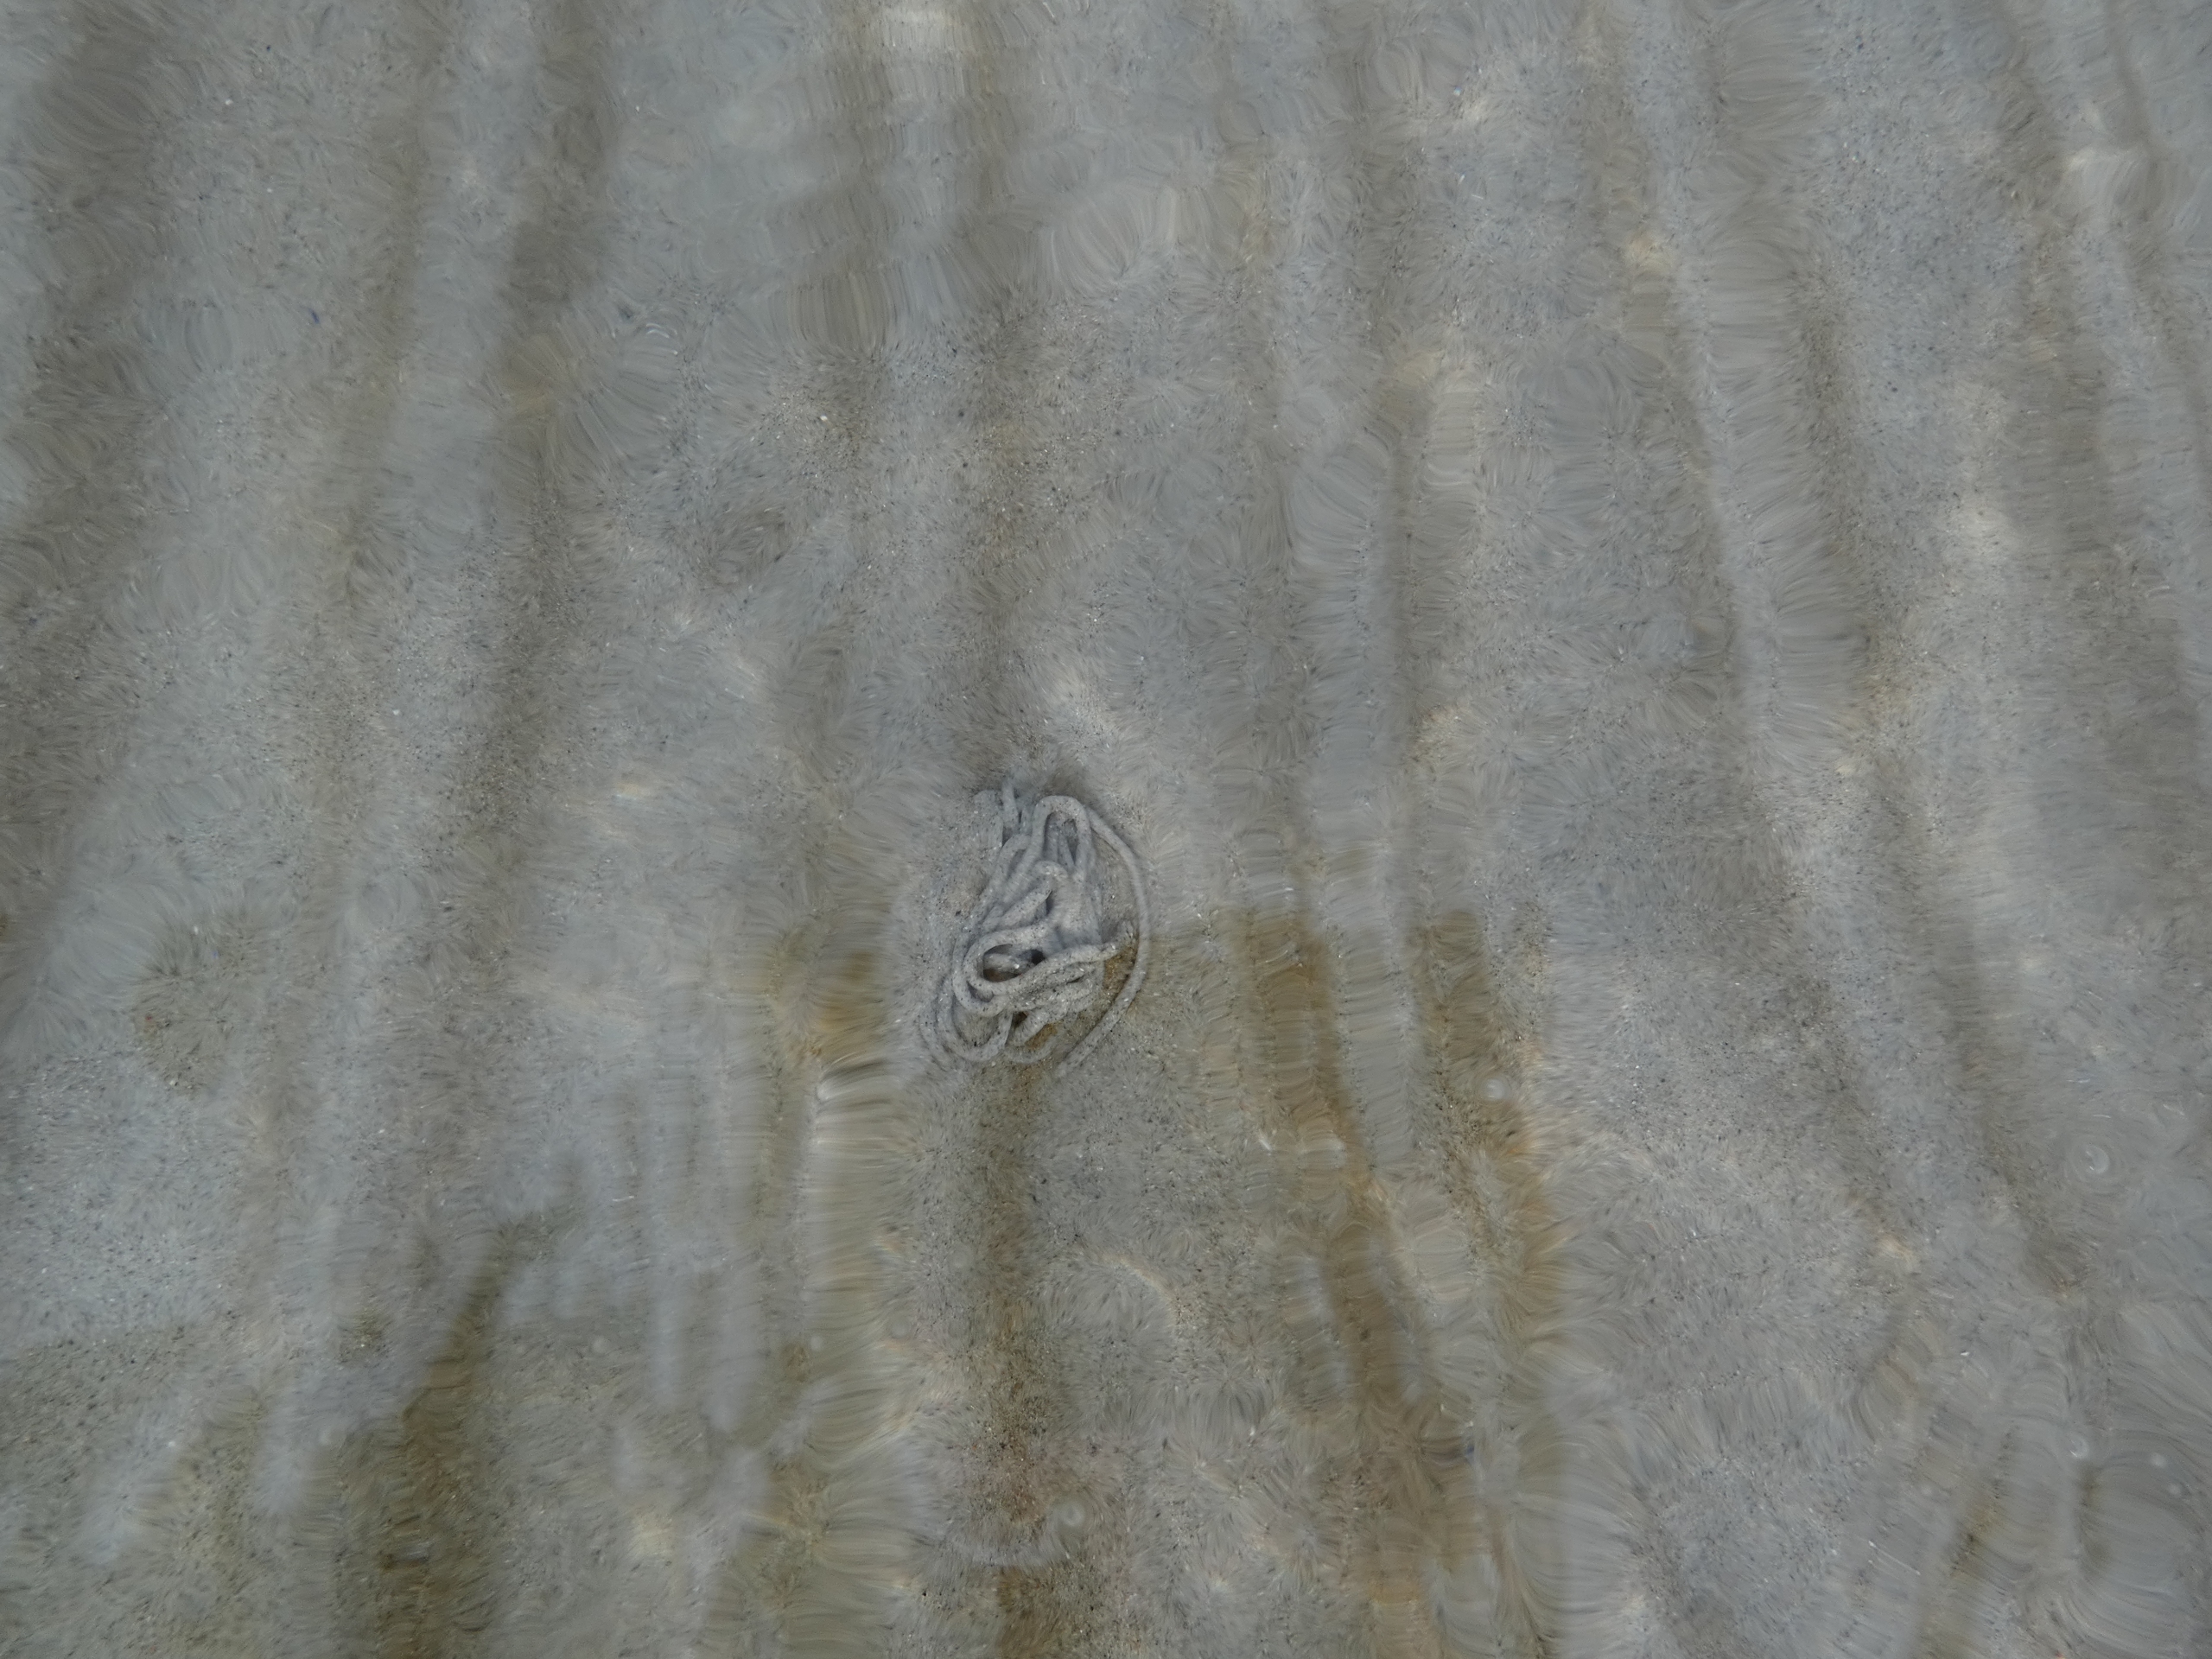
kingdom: Animalia
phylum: Annelida
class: Polychaeta
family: Arenicolidae
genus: Arenicola
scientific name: Arenicola marina
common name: Sandorm
